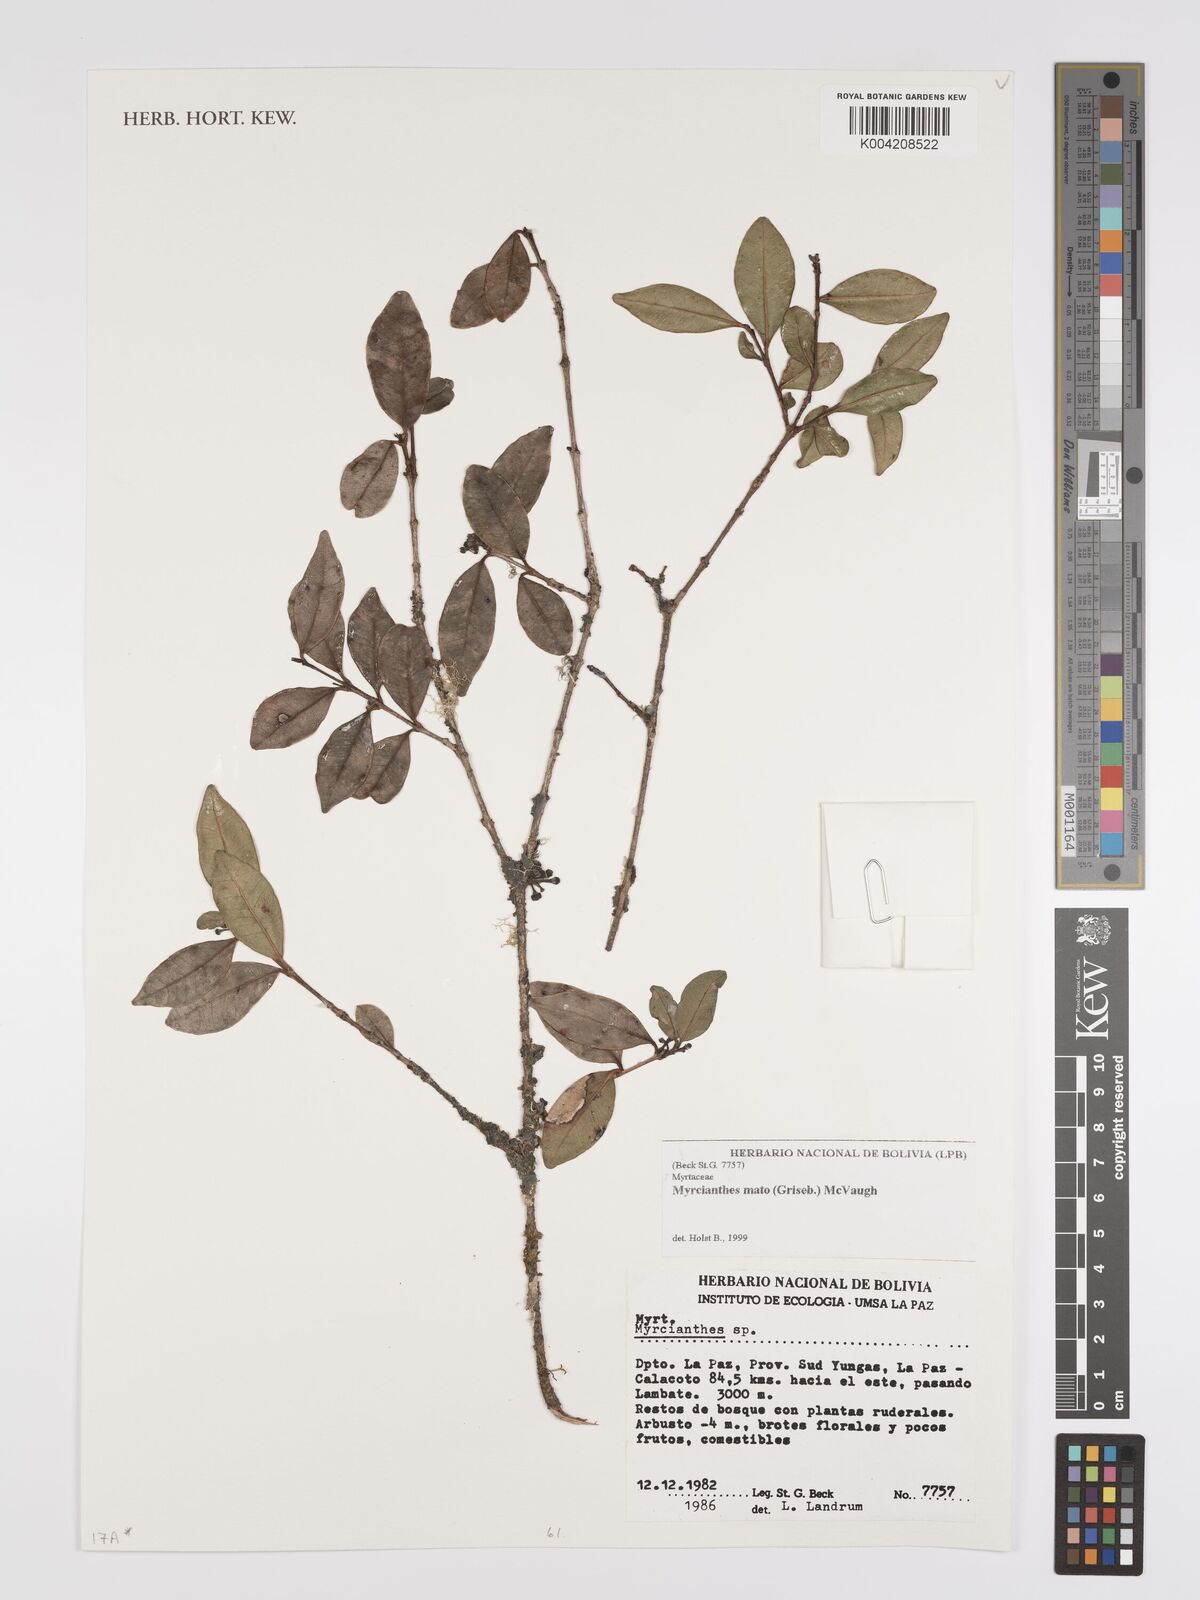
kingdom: Plantae
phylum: Tracheophyta
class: Magnoliopsida
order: Myrtales
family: Myrtaceae
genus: Myrcianthes
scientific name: Myrcianthes mato
